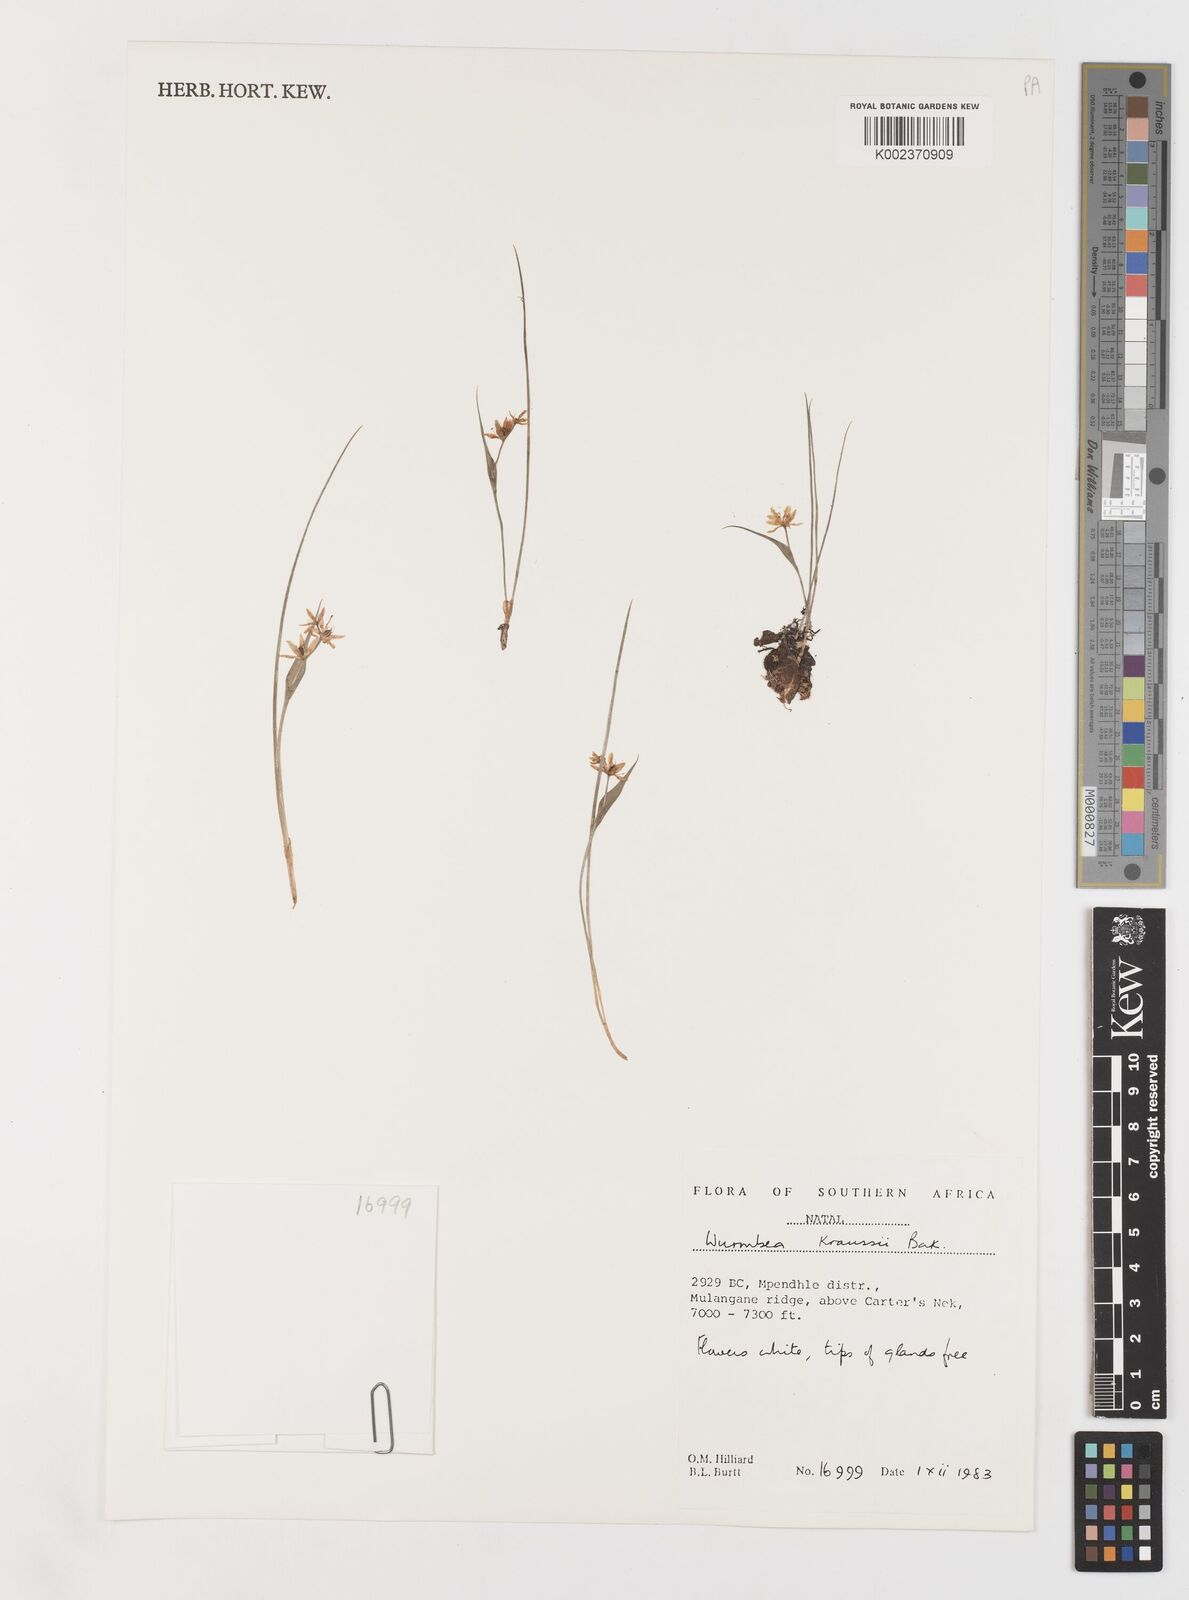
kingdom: Plantae
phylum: Tracheophyta
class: Liliopsida
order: Liliales
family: Colchicaceae
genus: Wurmbea
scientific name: Wurmbea kraussii
